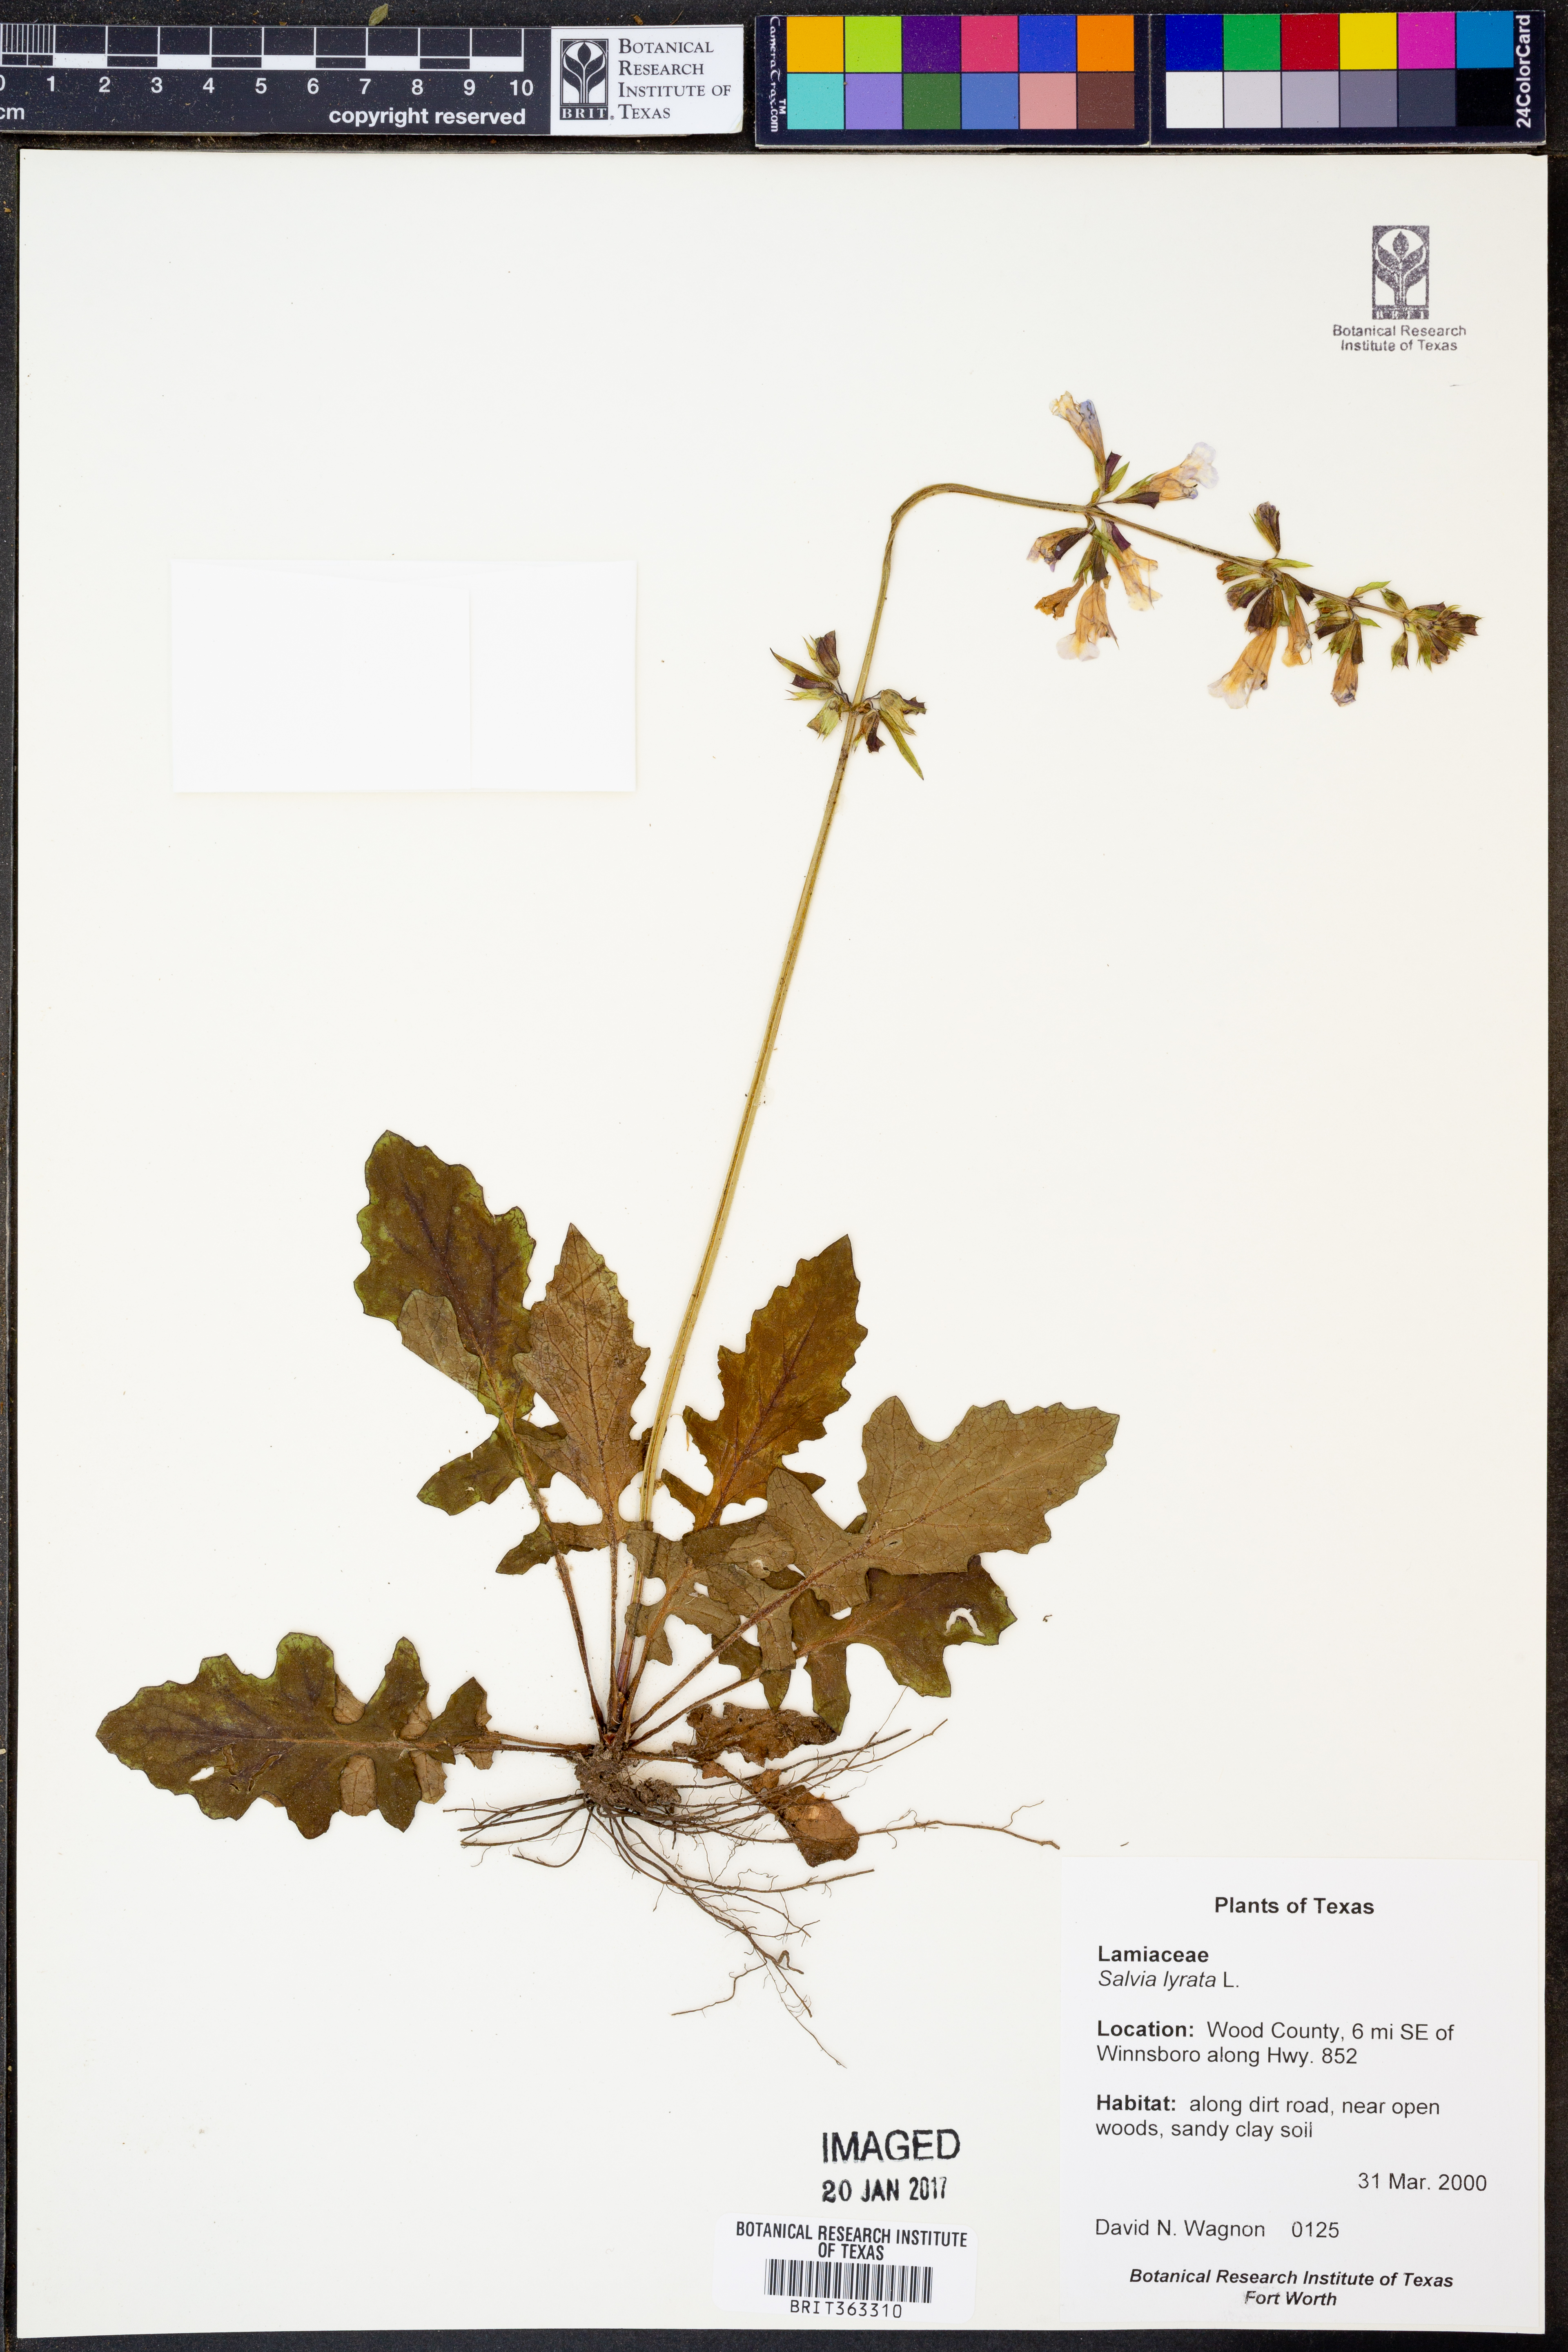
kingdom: Plantae
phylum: Tracheophyta
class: Magnoliopsida
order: Lamiales
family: Lamiaceae
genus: Salvia
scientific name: Salvia lyrata
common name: Cancerweed
